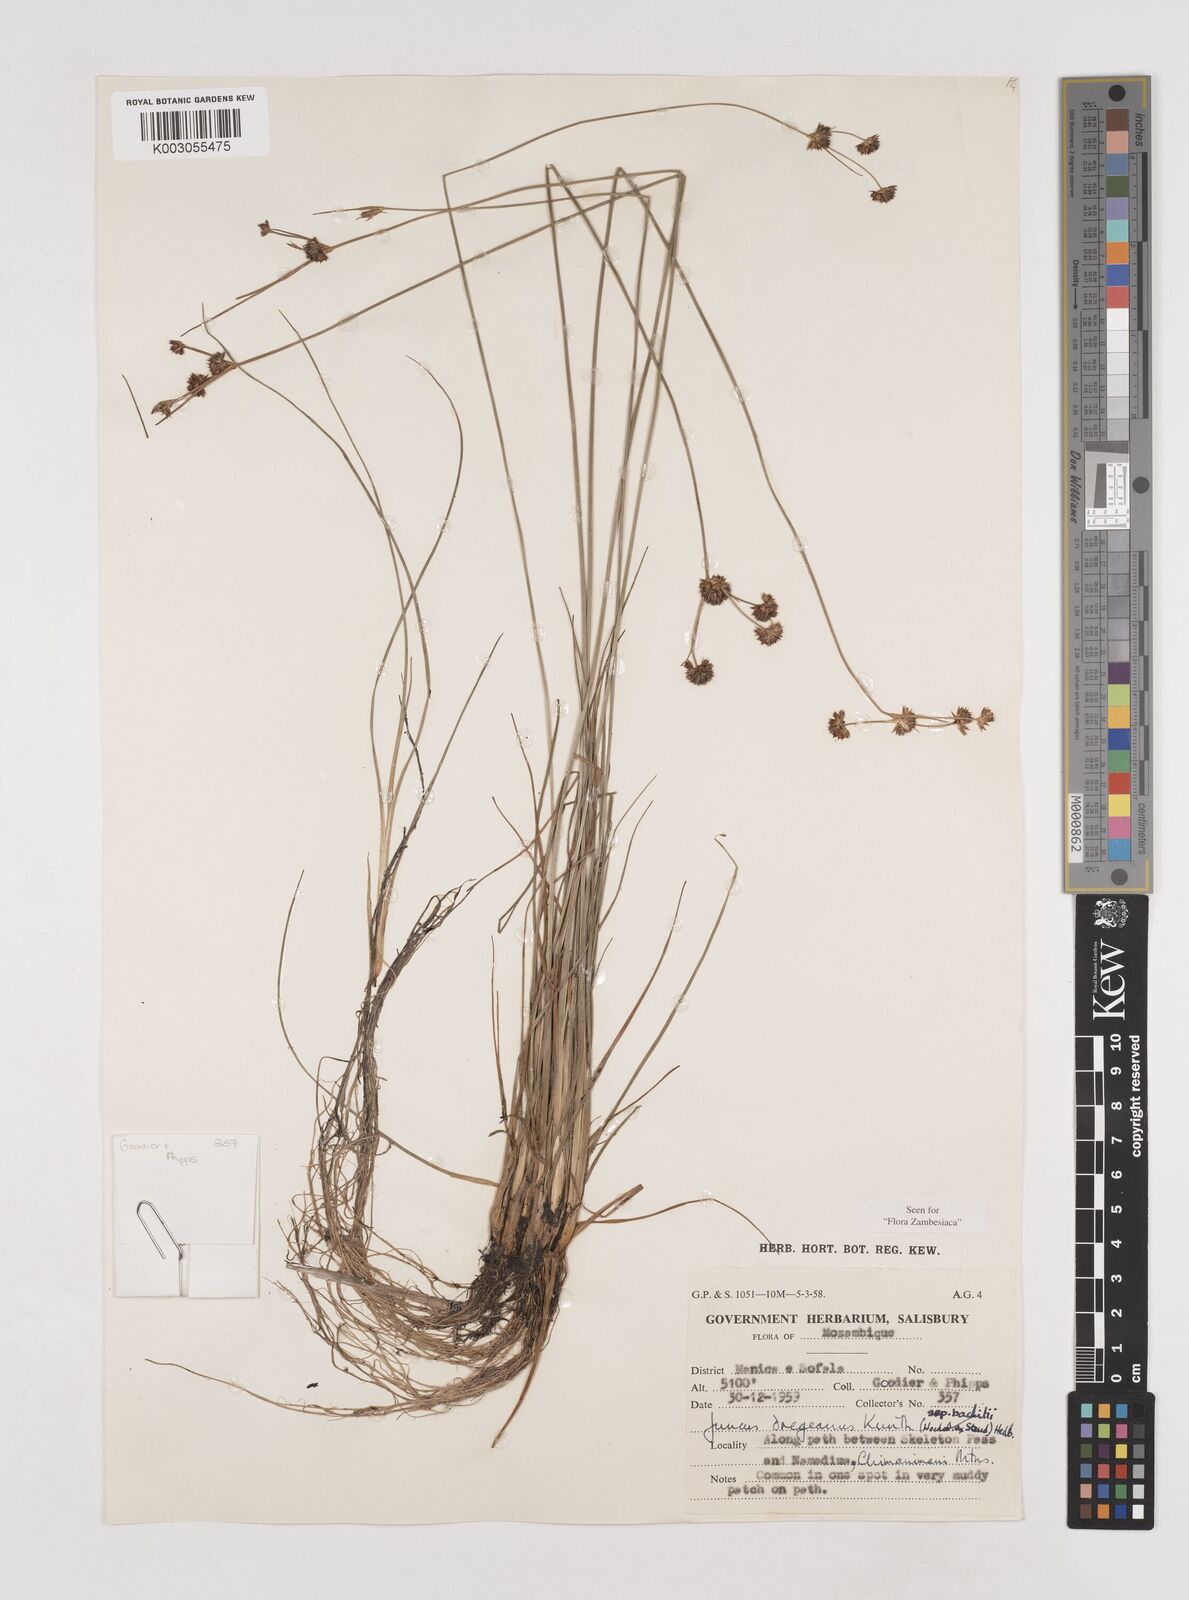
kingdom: Plantae
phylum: Tracheophyta
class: Liliopsida
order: Poales
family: Juncaceae
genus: Juncus
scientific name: Juncus dregeanus
